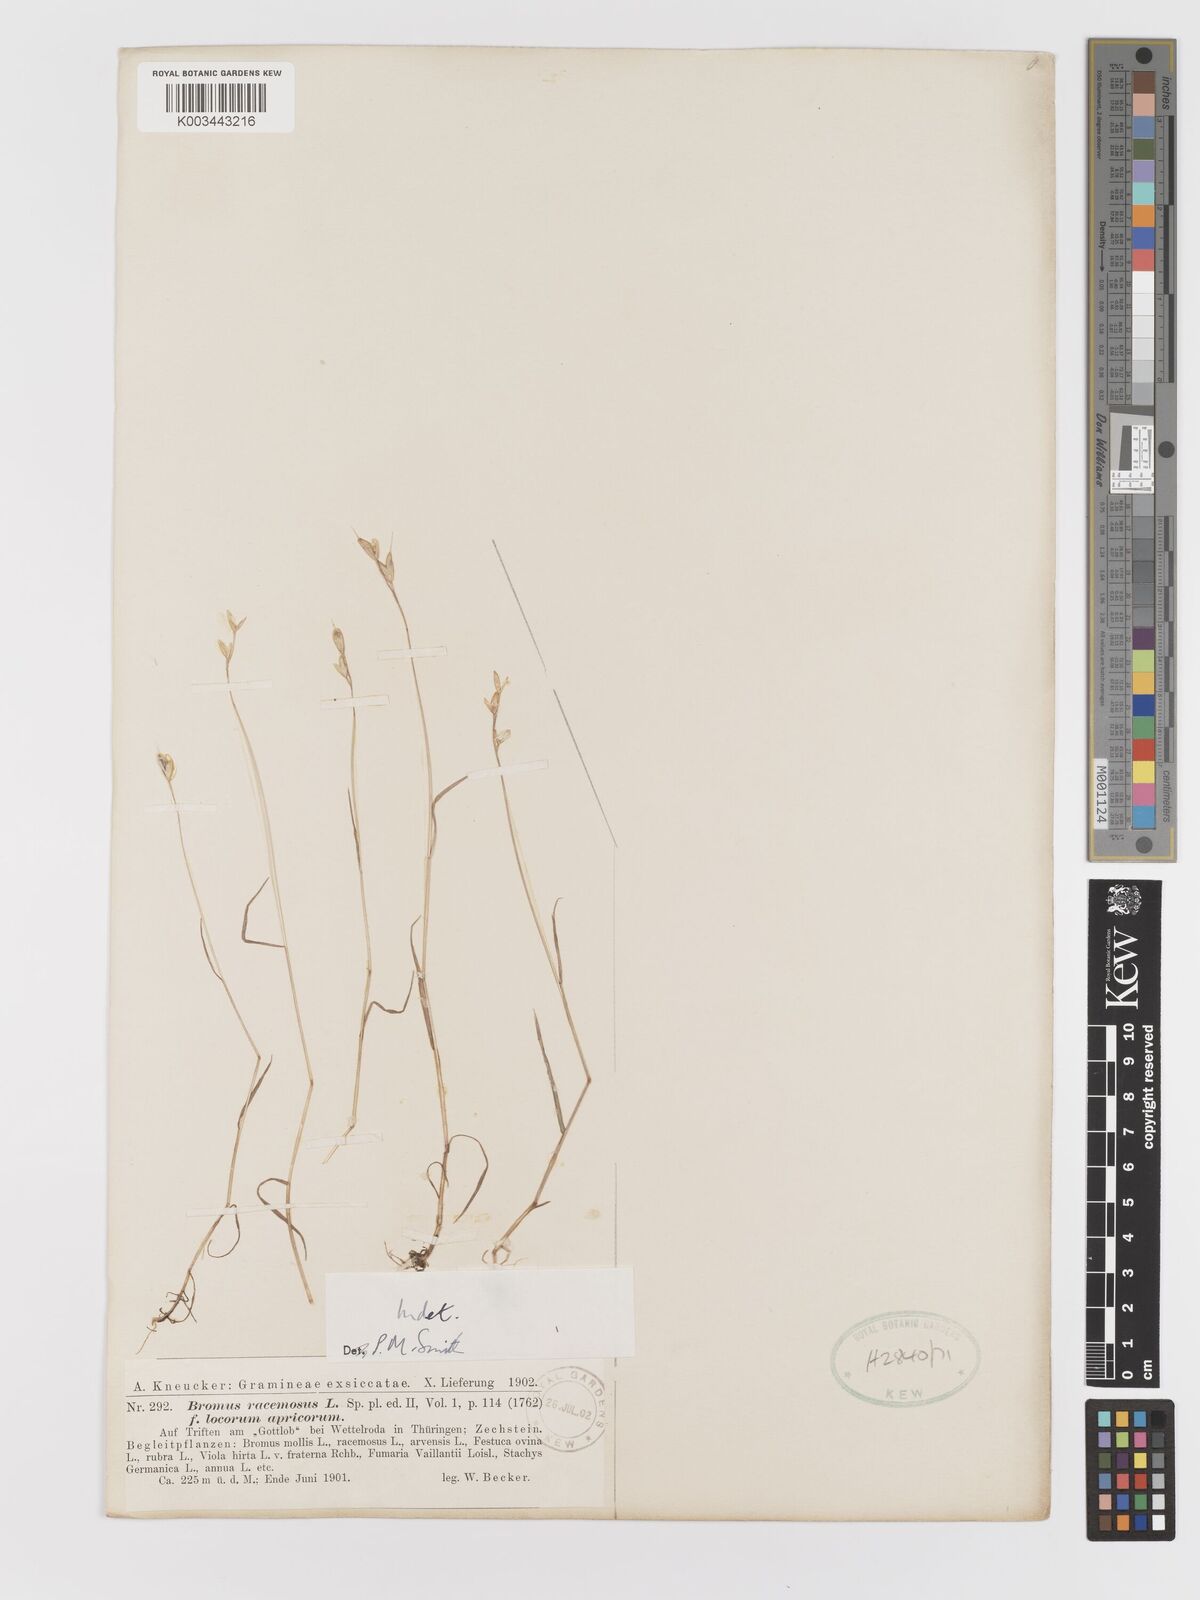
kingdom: Plantae
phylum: Tracheophyta
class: Liliopsida
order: Poales
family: Poaceae
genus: Bromus
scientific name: Bromus
